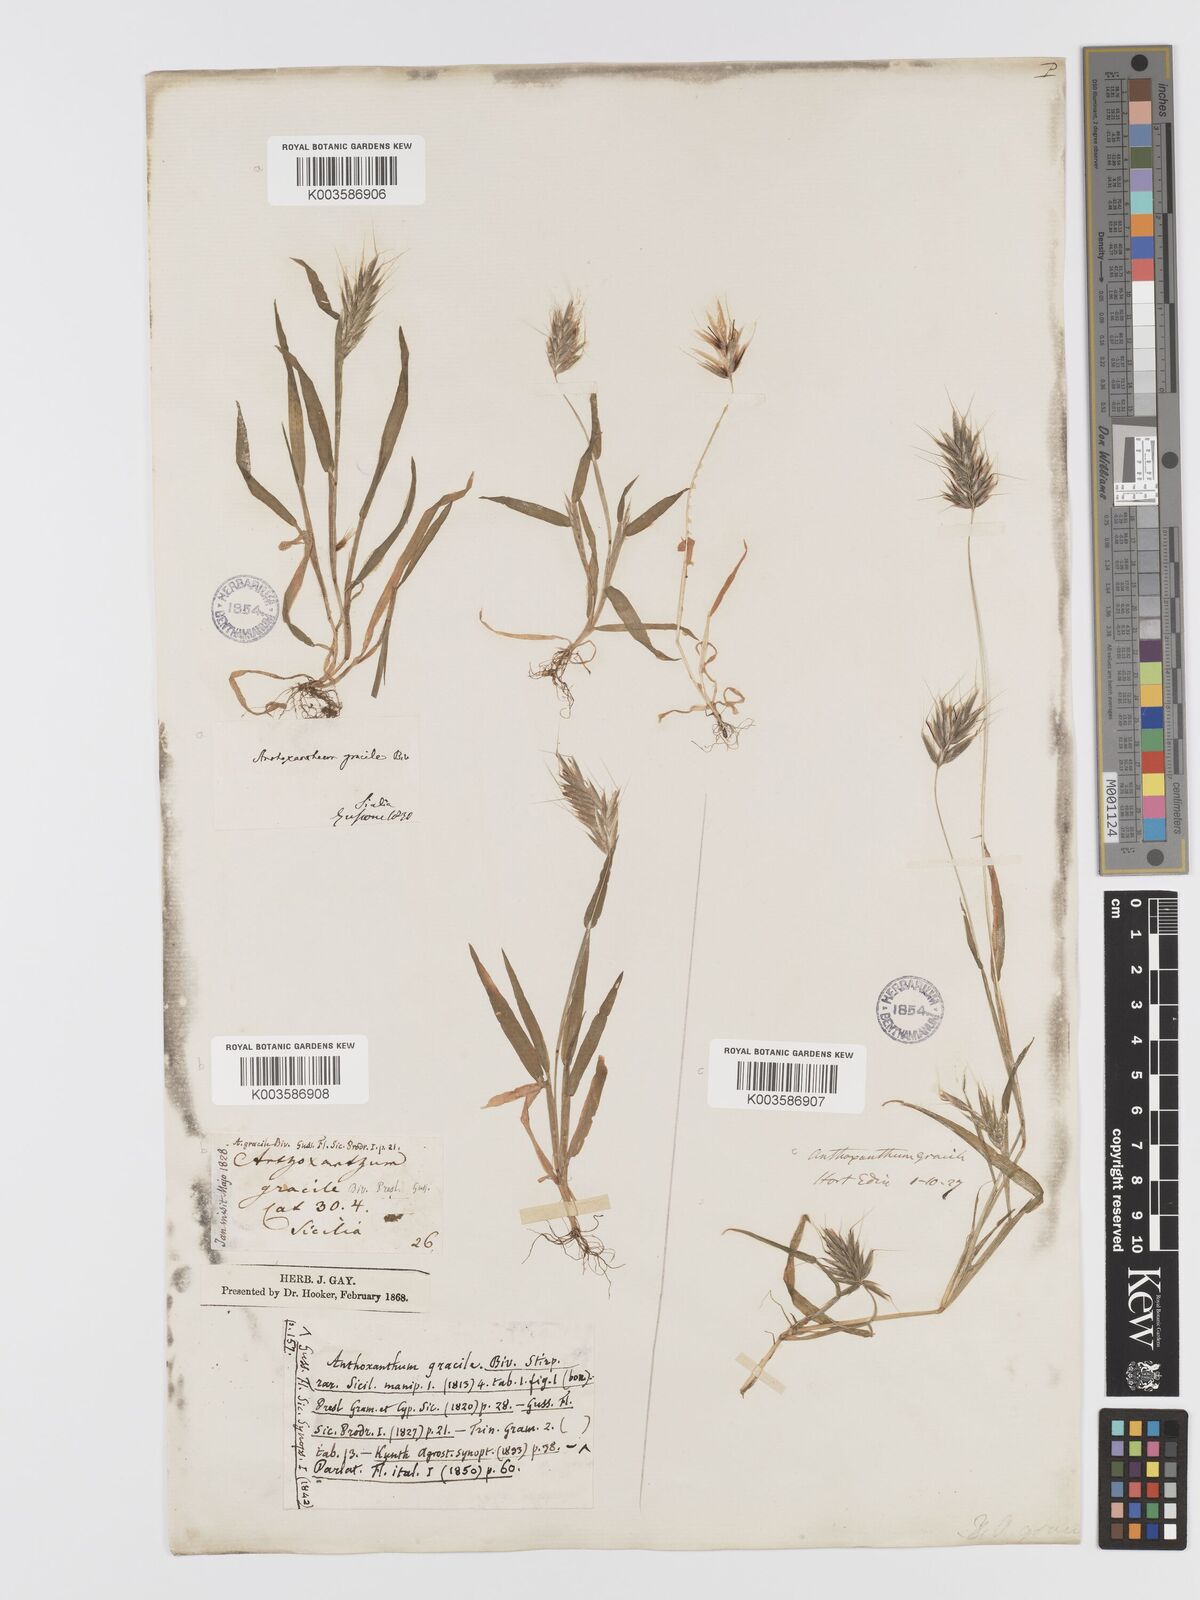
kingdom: Plantae
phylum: Tracheophyta
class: Liliopsida
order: Poales
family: Poaceae
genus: Anthoxanthum
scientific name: Anthoxanthum gracile
